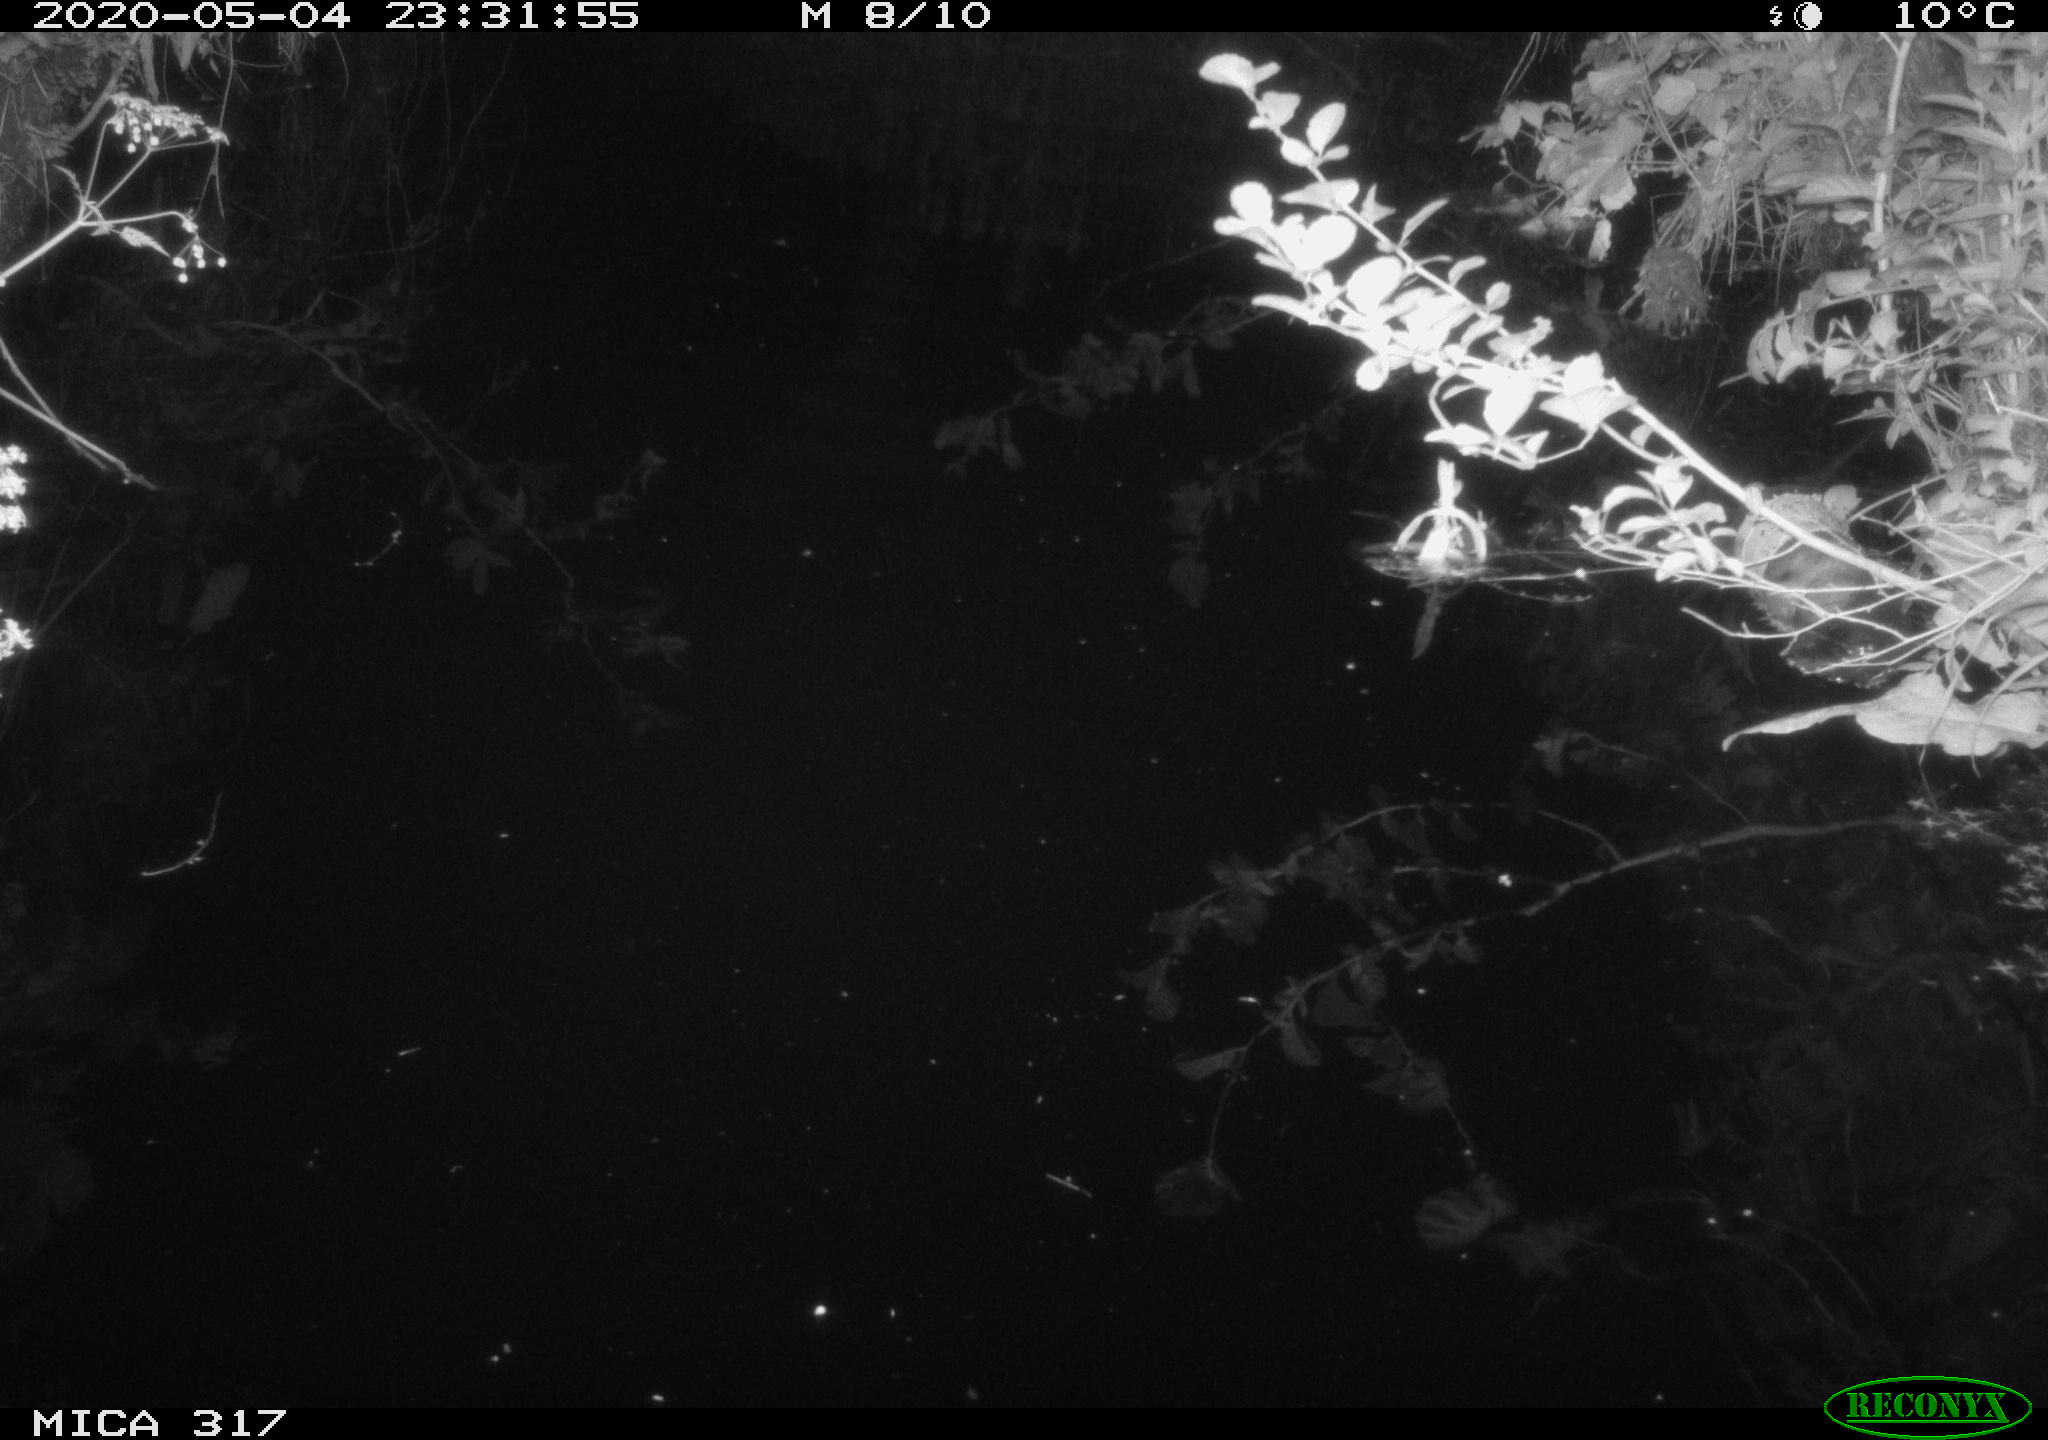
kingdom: Animalia
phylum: Chordata
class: Aves
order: Anseriformes
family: Anatidae
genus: Anas
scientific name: Anas platyrhynchos
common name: Mallard
